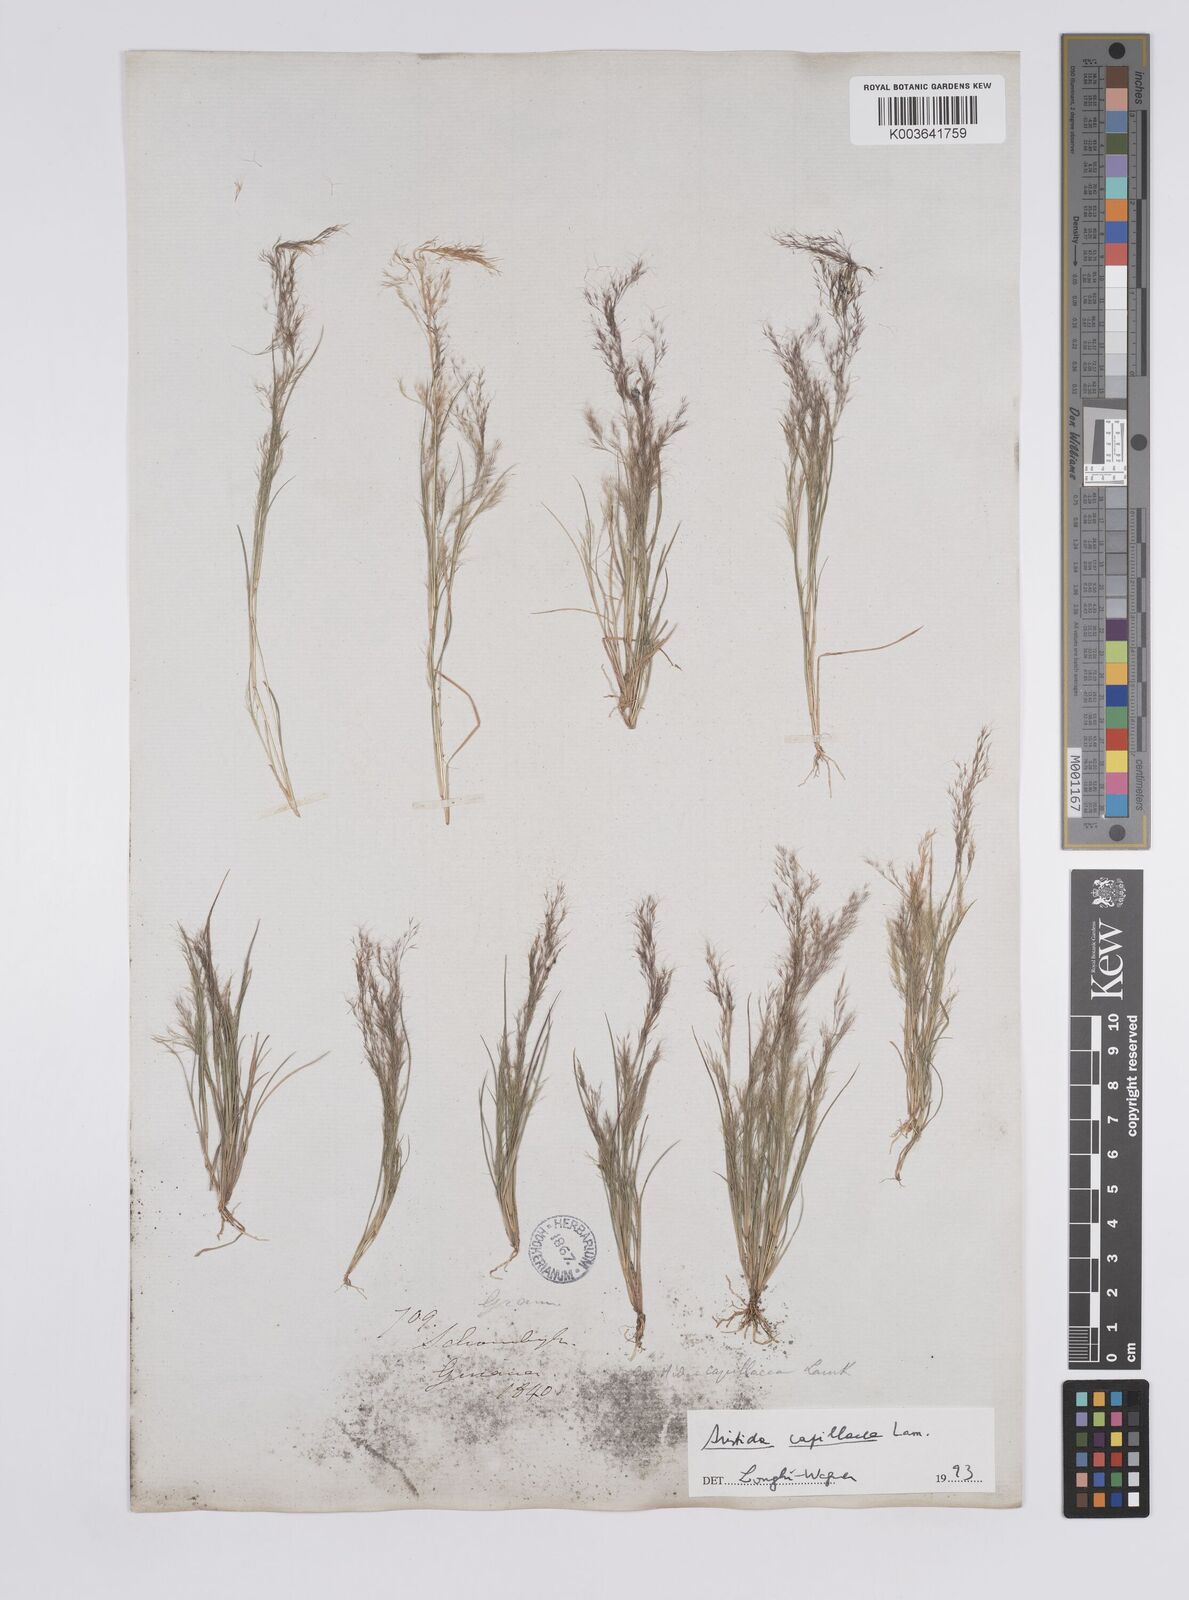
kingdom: Plantae
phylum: Tracheophyta
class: Liliopsida
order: Poales
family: Poaceae
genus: Aristida
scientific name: Aristida capillacea
